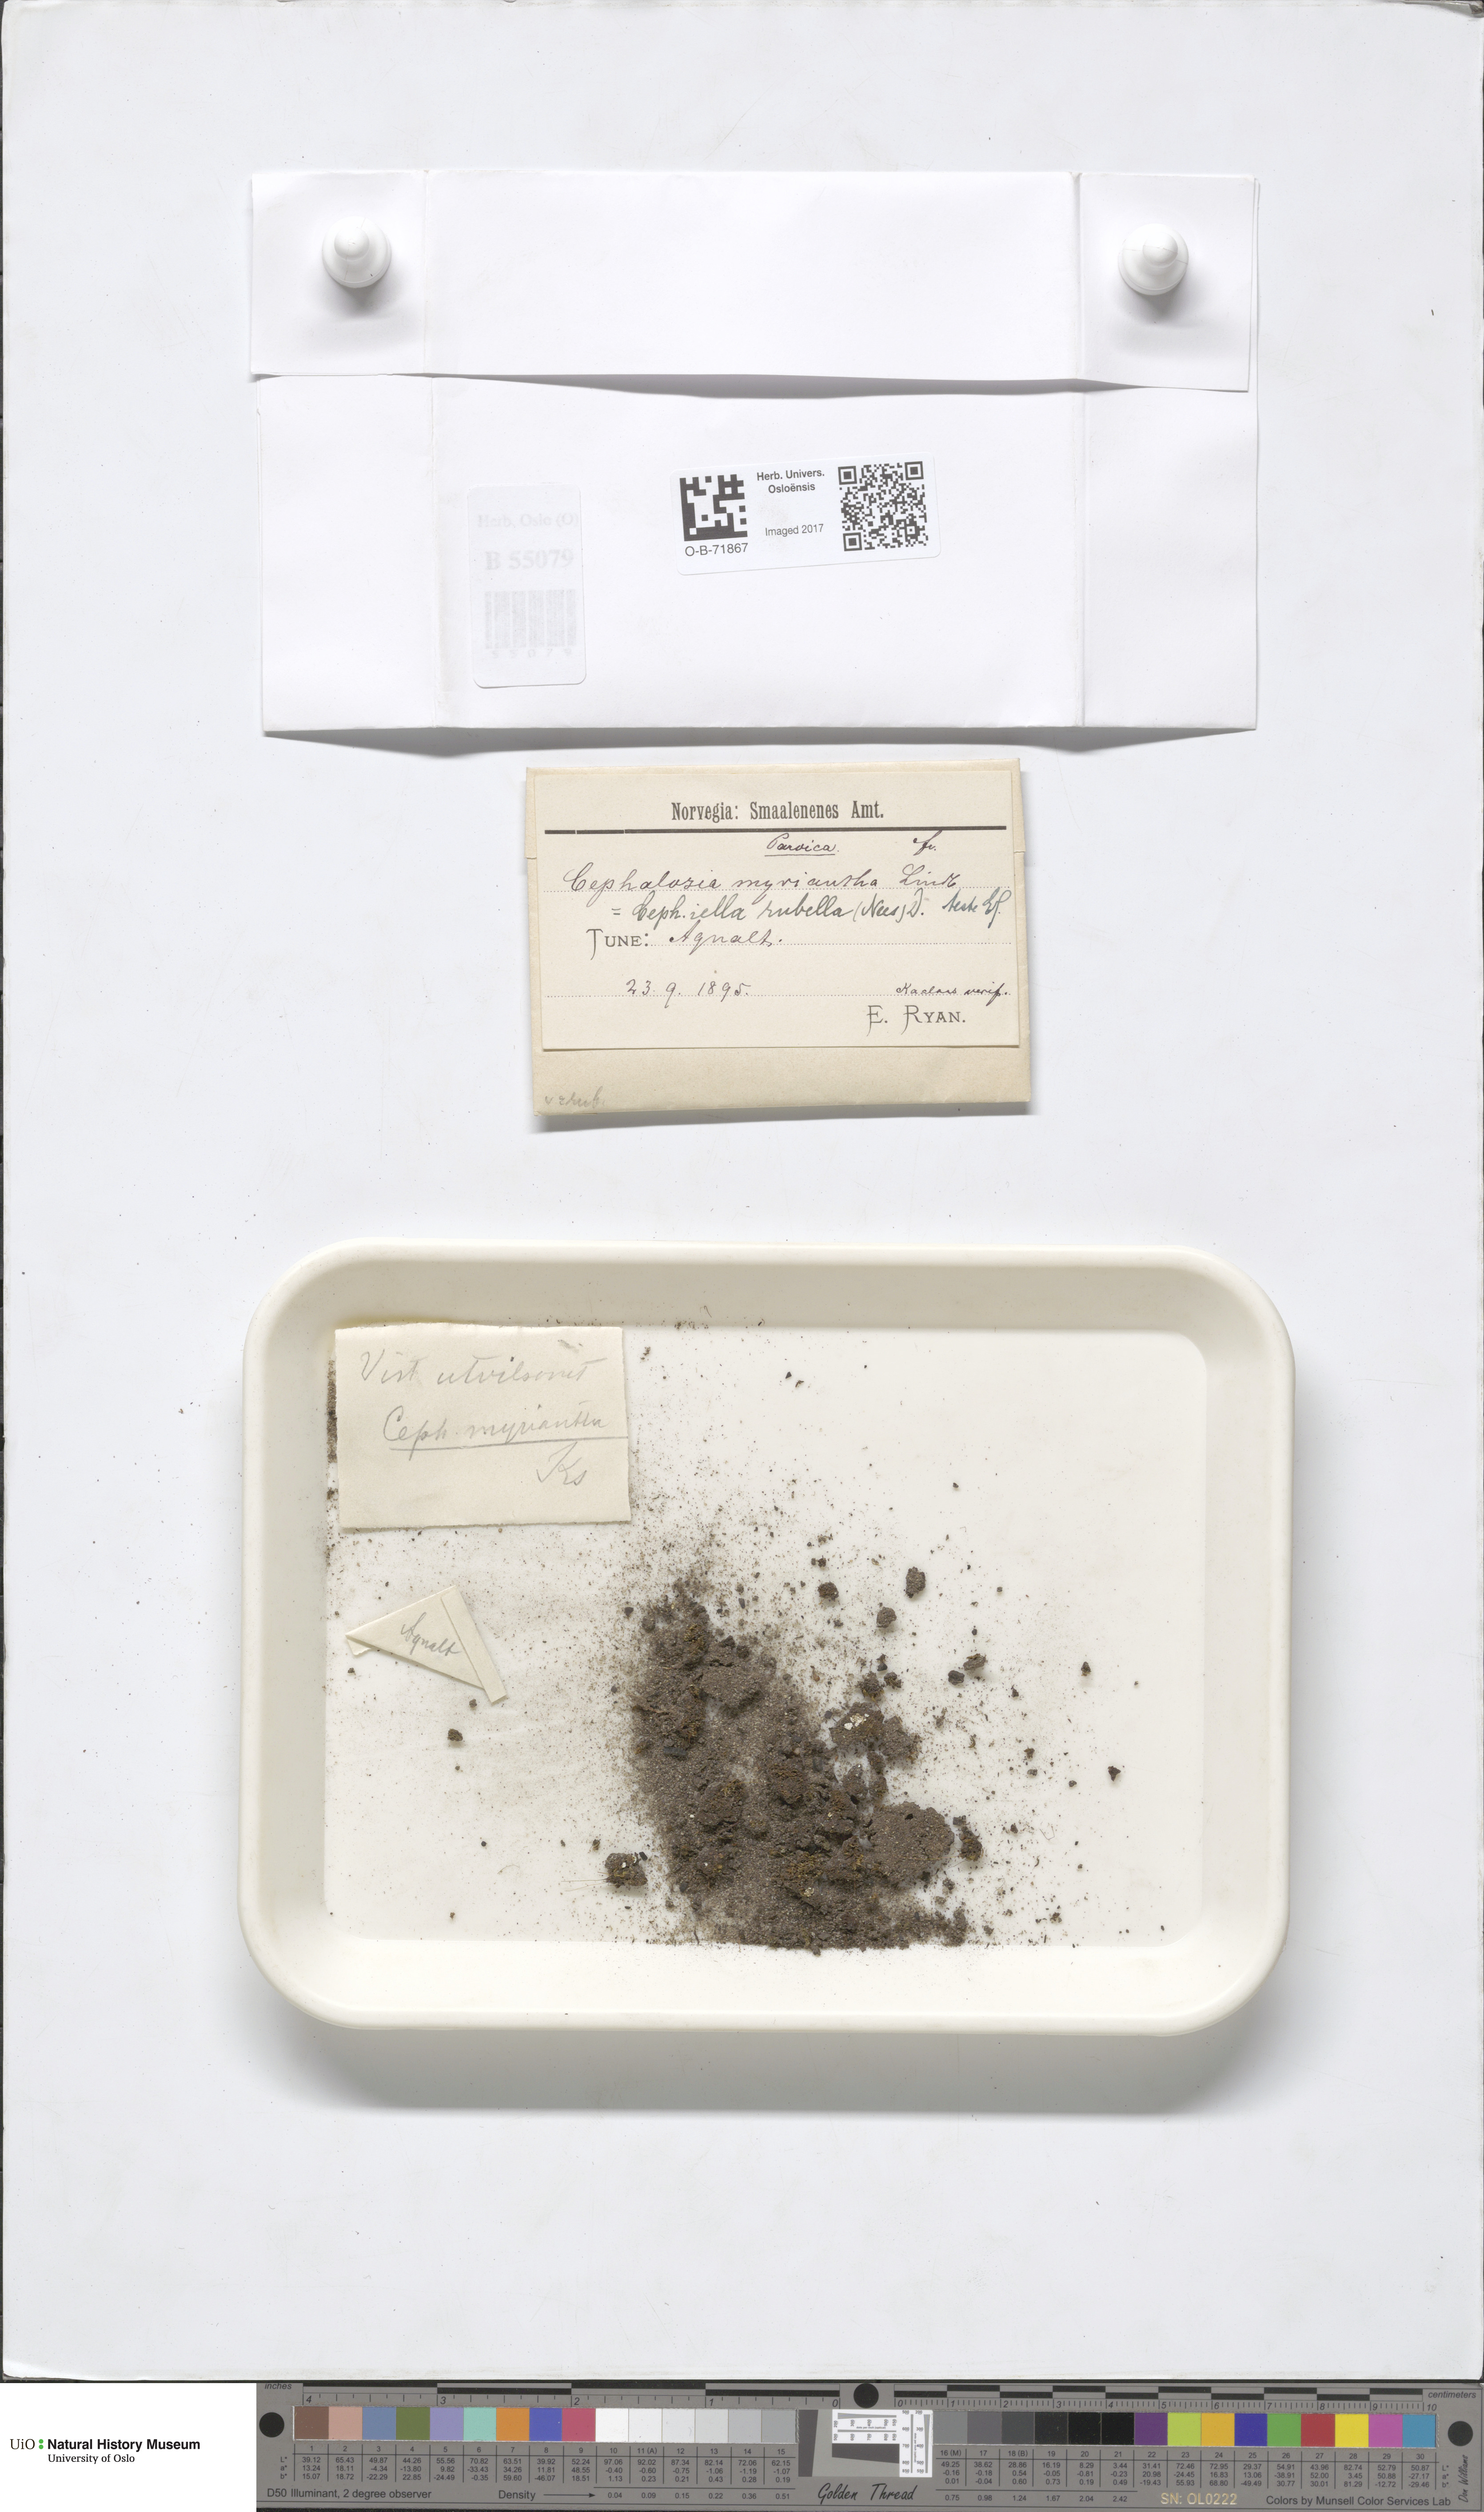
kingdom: Plantae
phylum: Marchantiophyta
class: Jungermanniopsida
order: Jungermanniales
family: Cephaloziellaceae
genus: Cephaloziella
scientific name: Cephaloziella rubella
